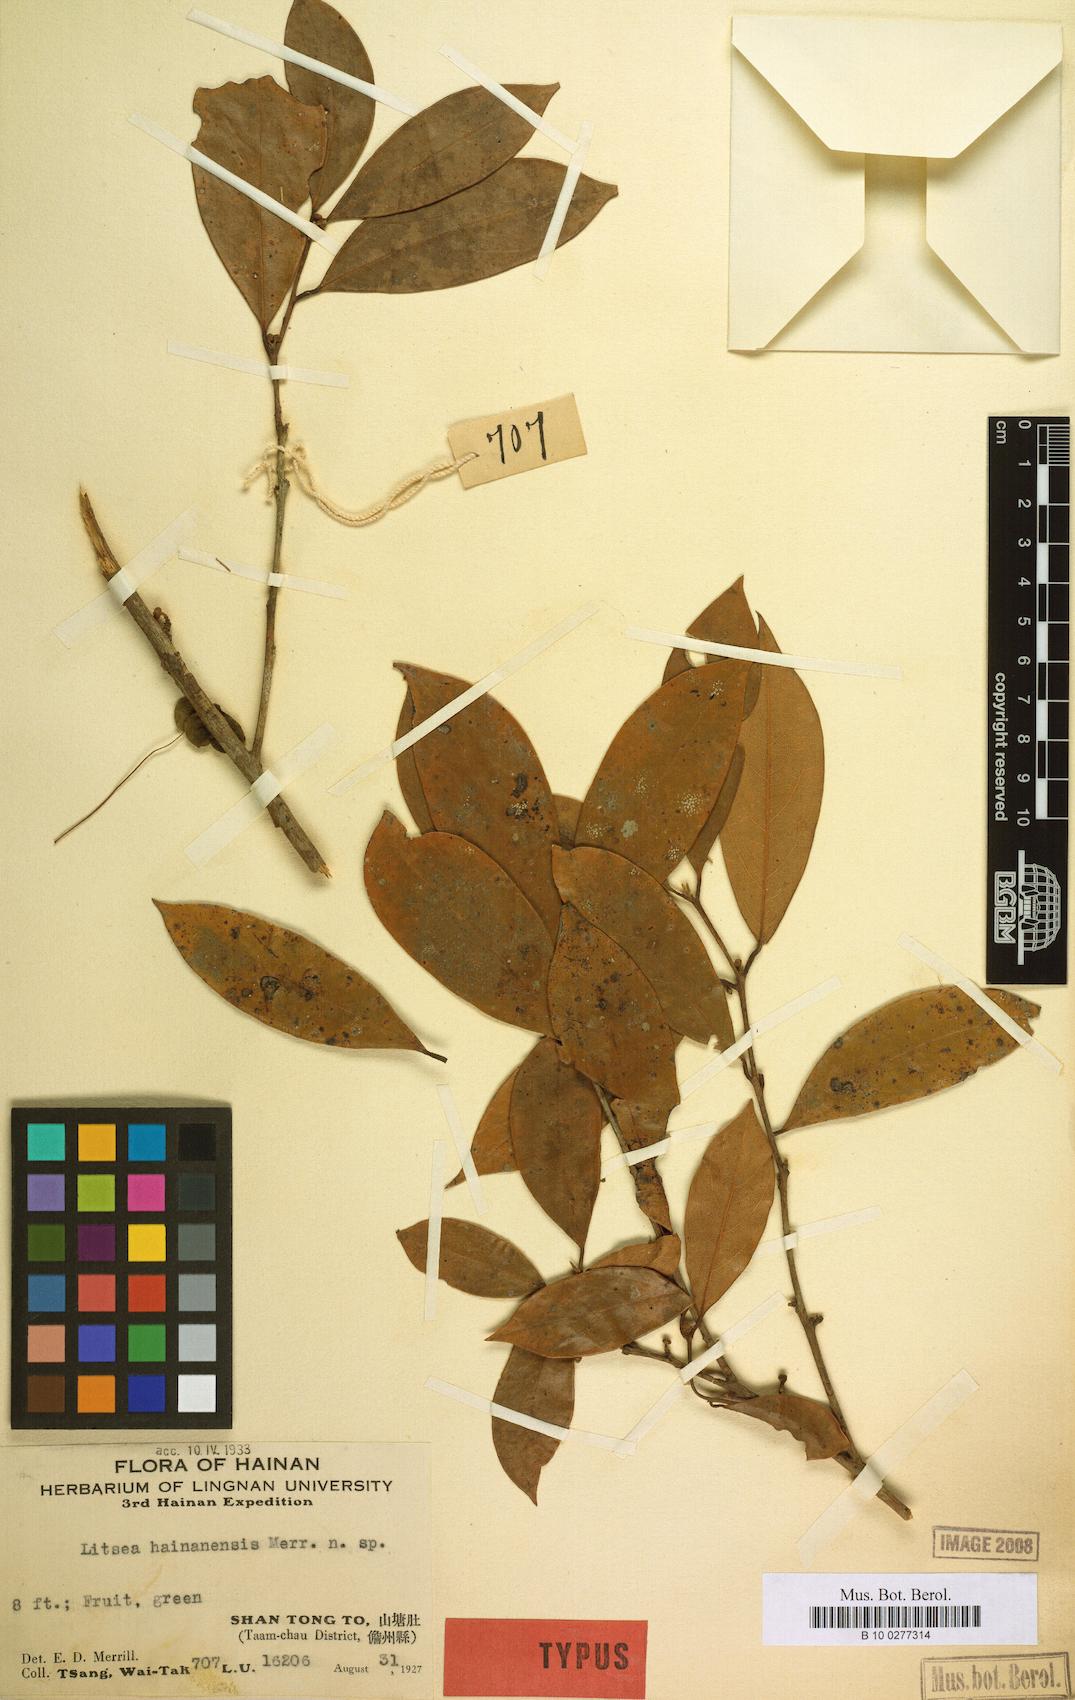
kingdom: Plantae
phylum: Tracheophyta
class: Magnoliopsida
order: Laurales
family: Lauraceae
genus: Litsea
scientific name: Litsea
